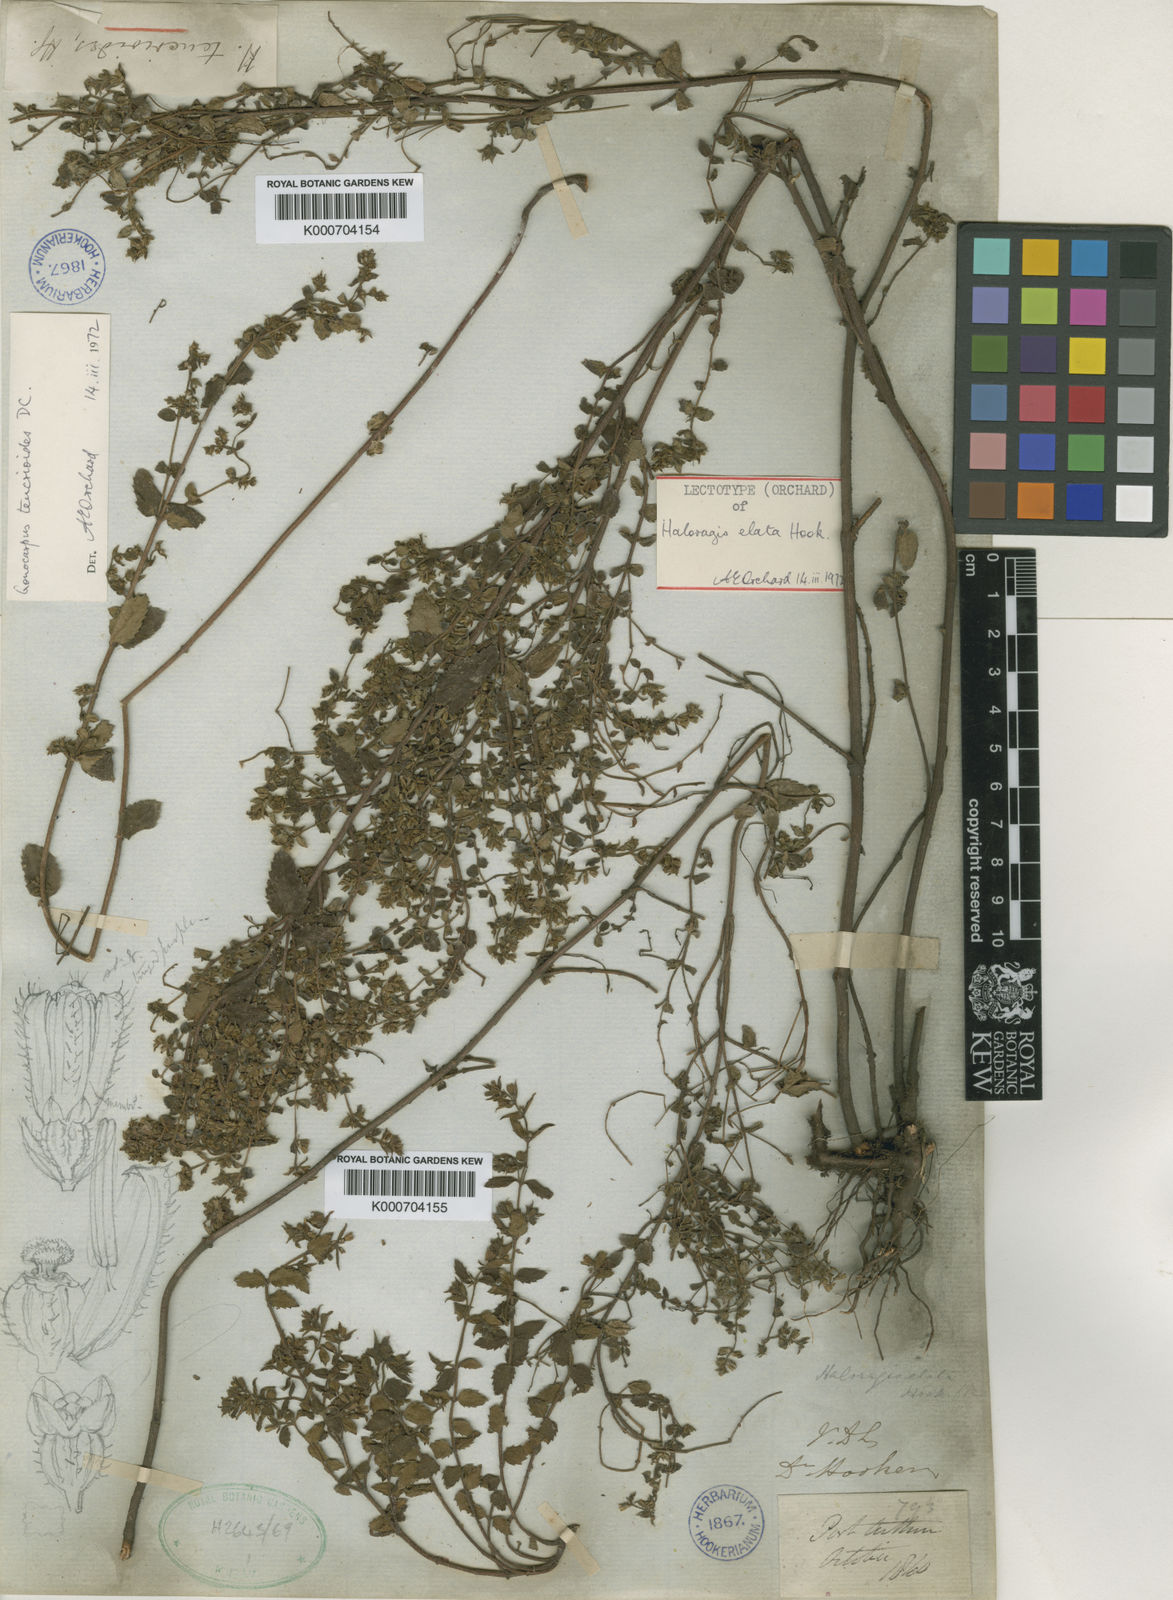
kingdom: Plantae
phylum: Tracheophyta
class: Magnoliopsida
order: Saxifragales
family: Haloragaceae
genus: Gonocarpus
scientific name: Gonocarpus teucrioides
